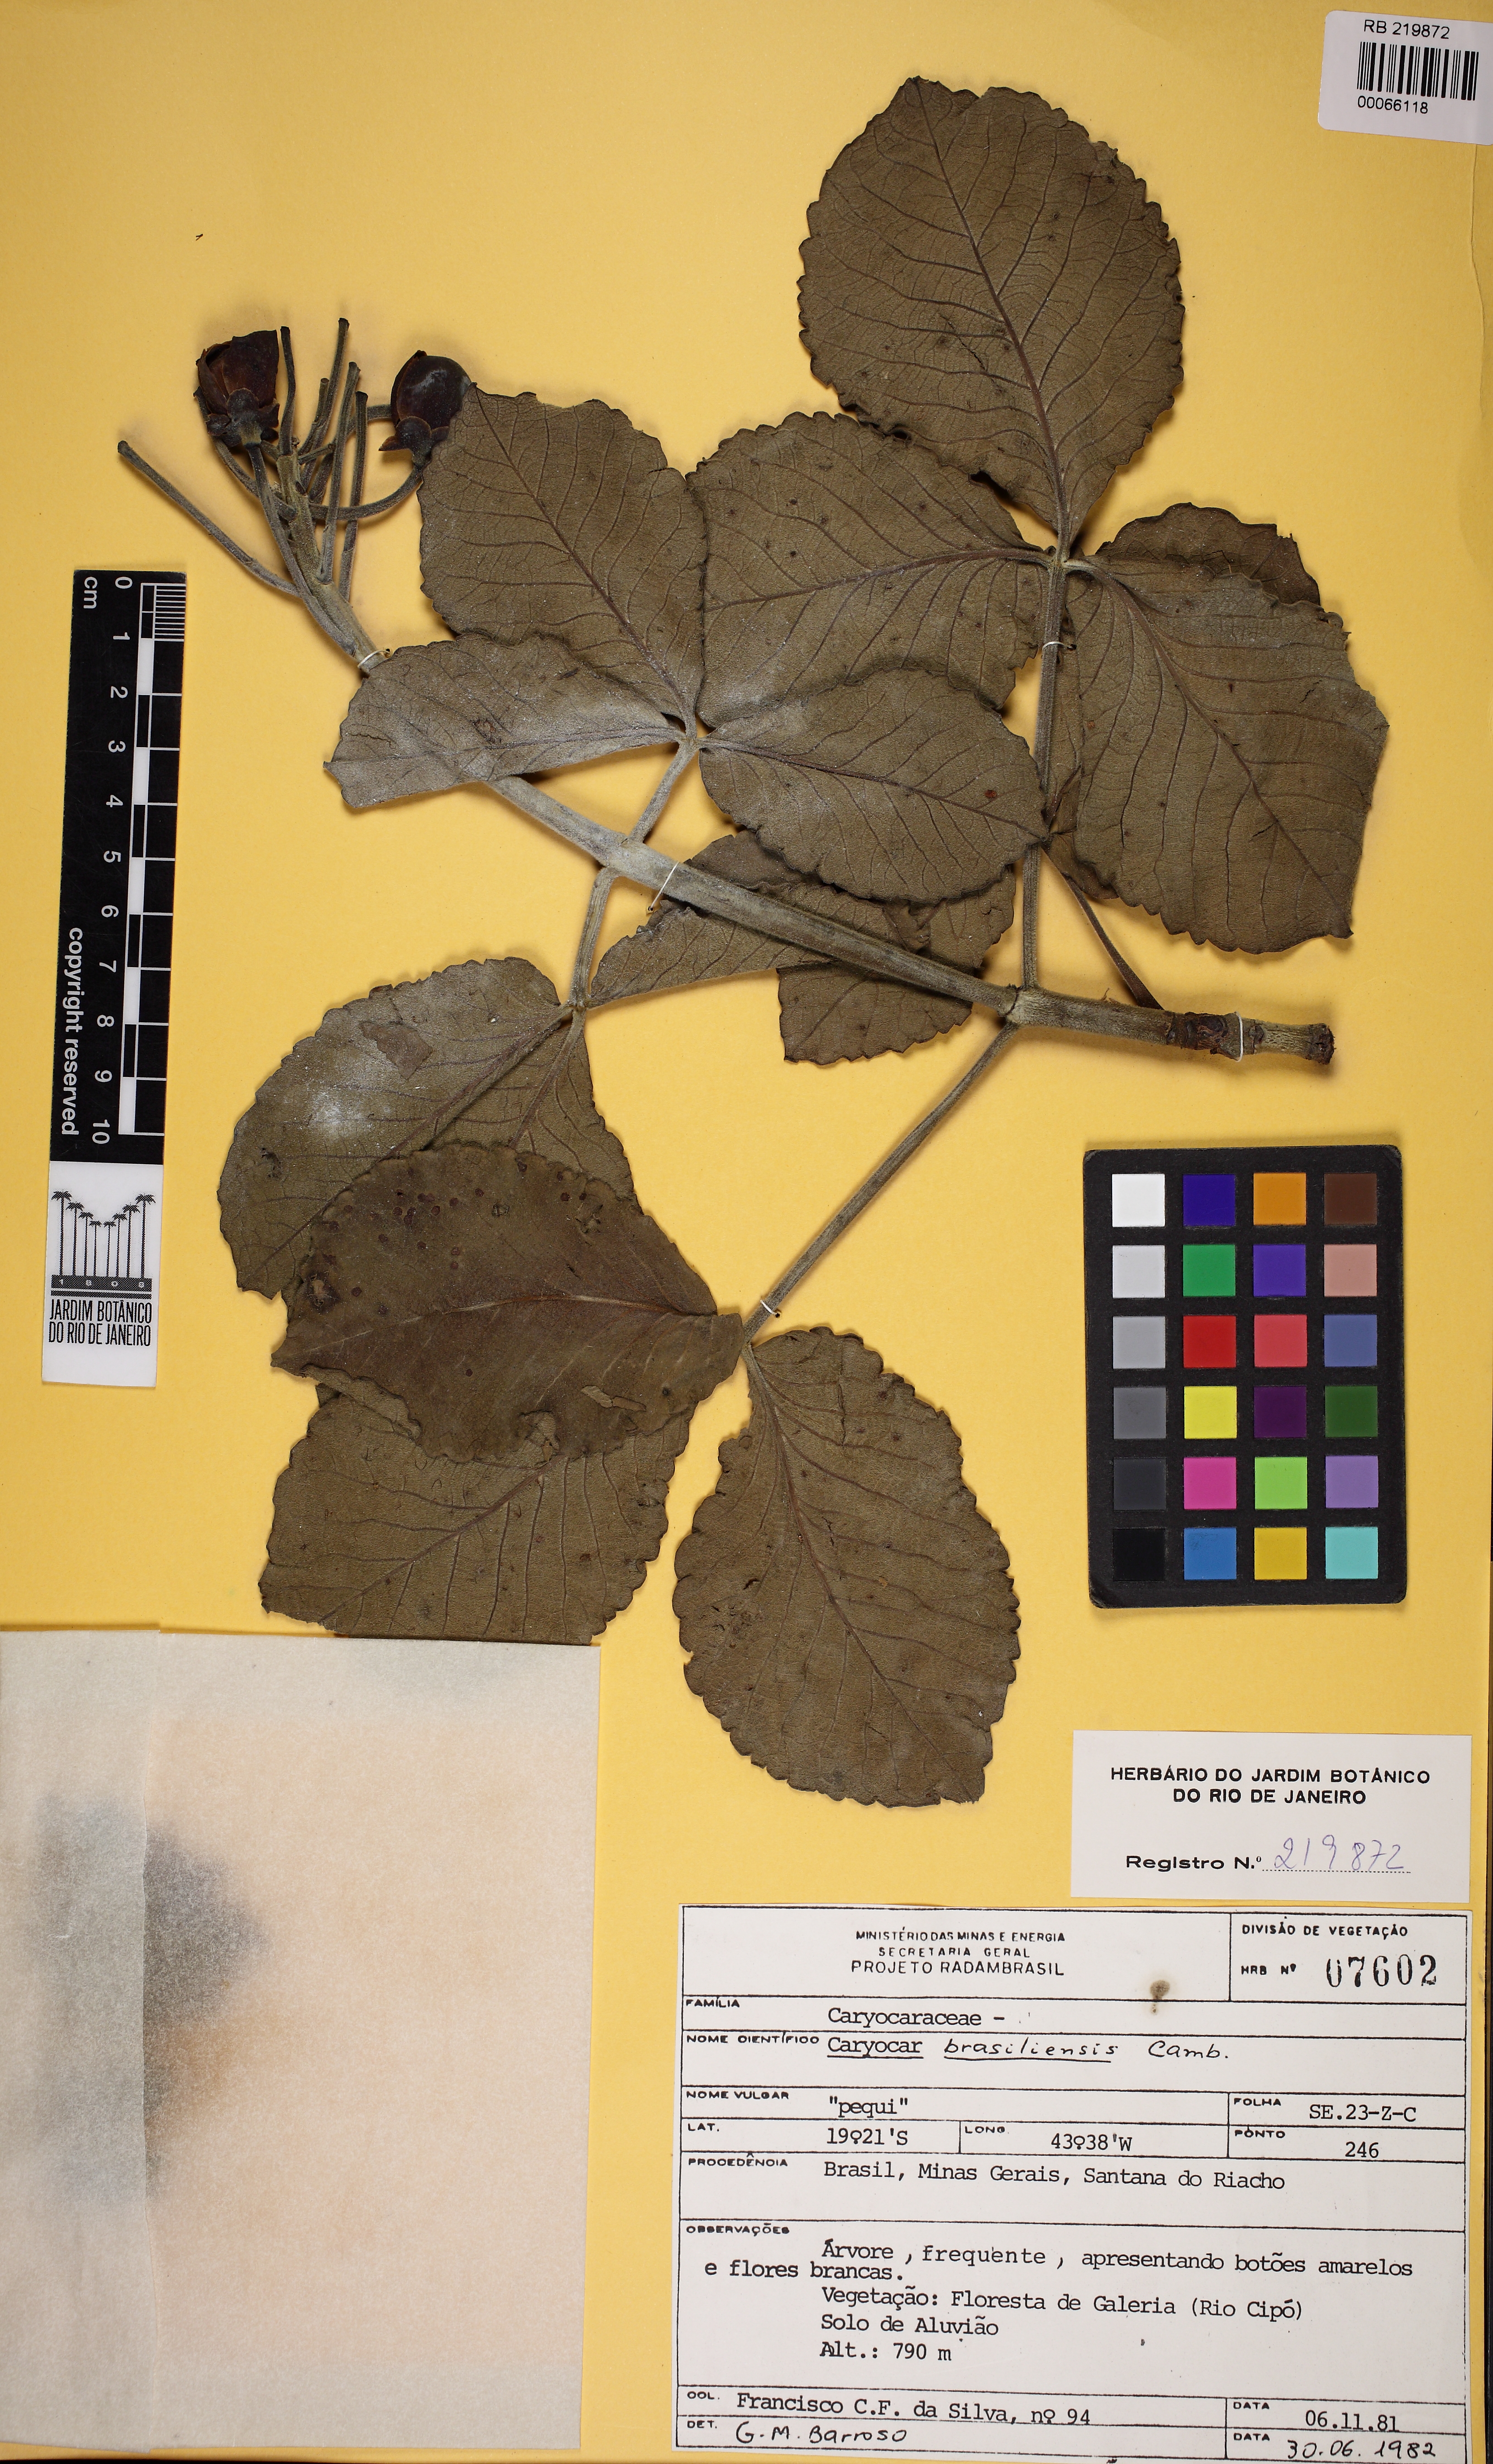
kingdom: Plantae
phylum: Tracheophyta
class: Magnoliopsida
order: Malpighiales
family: Caryocaraceae
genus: Caryocar
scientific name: Caryocar brasiliense
